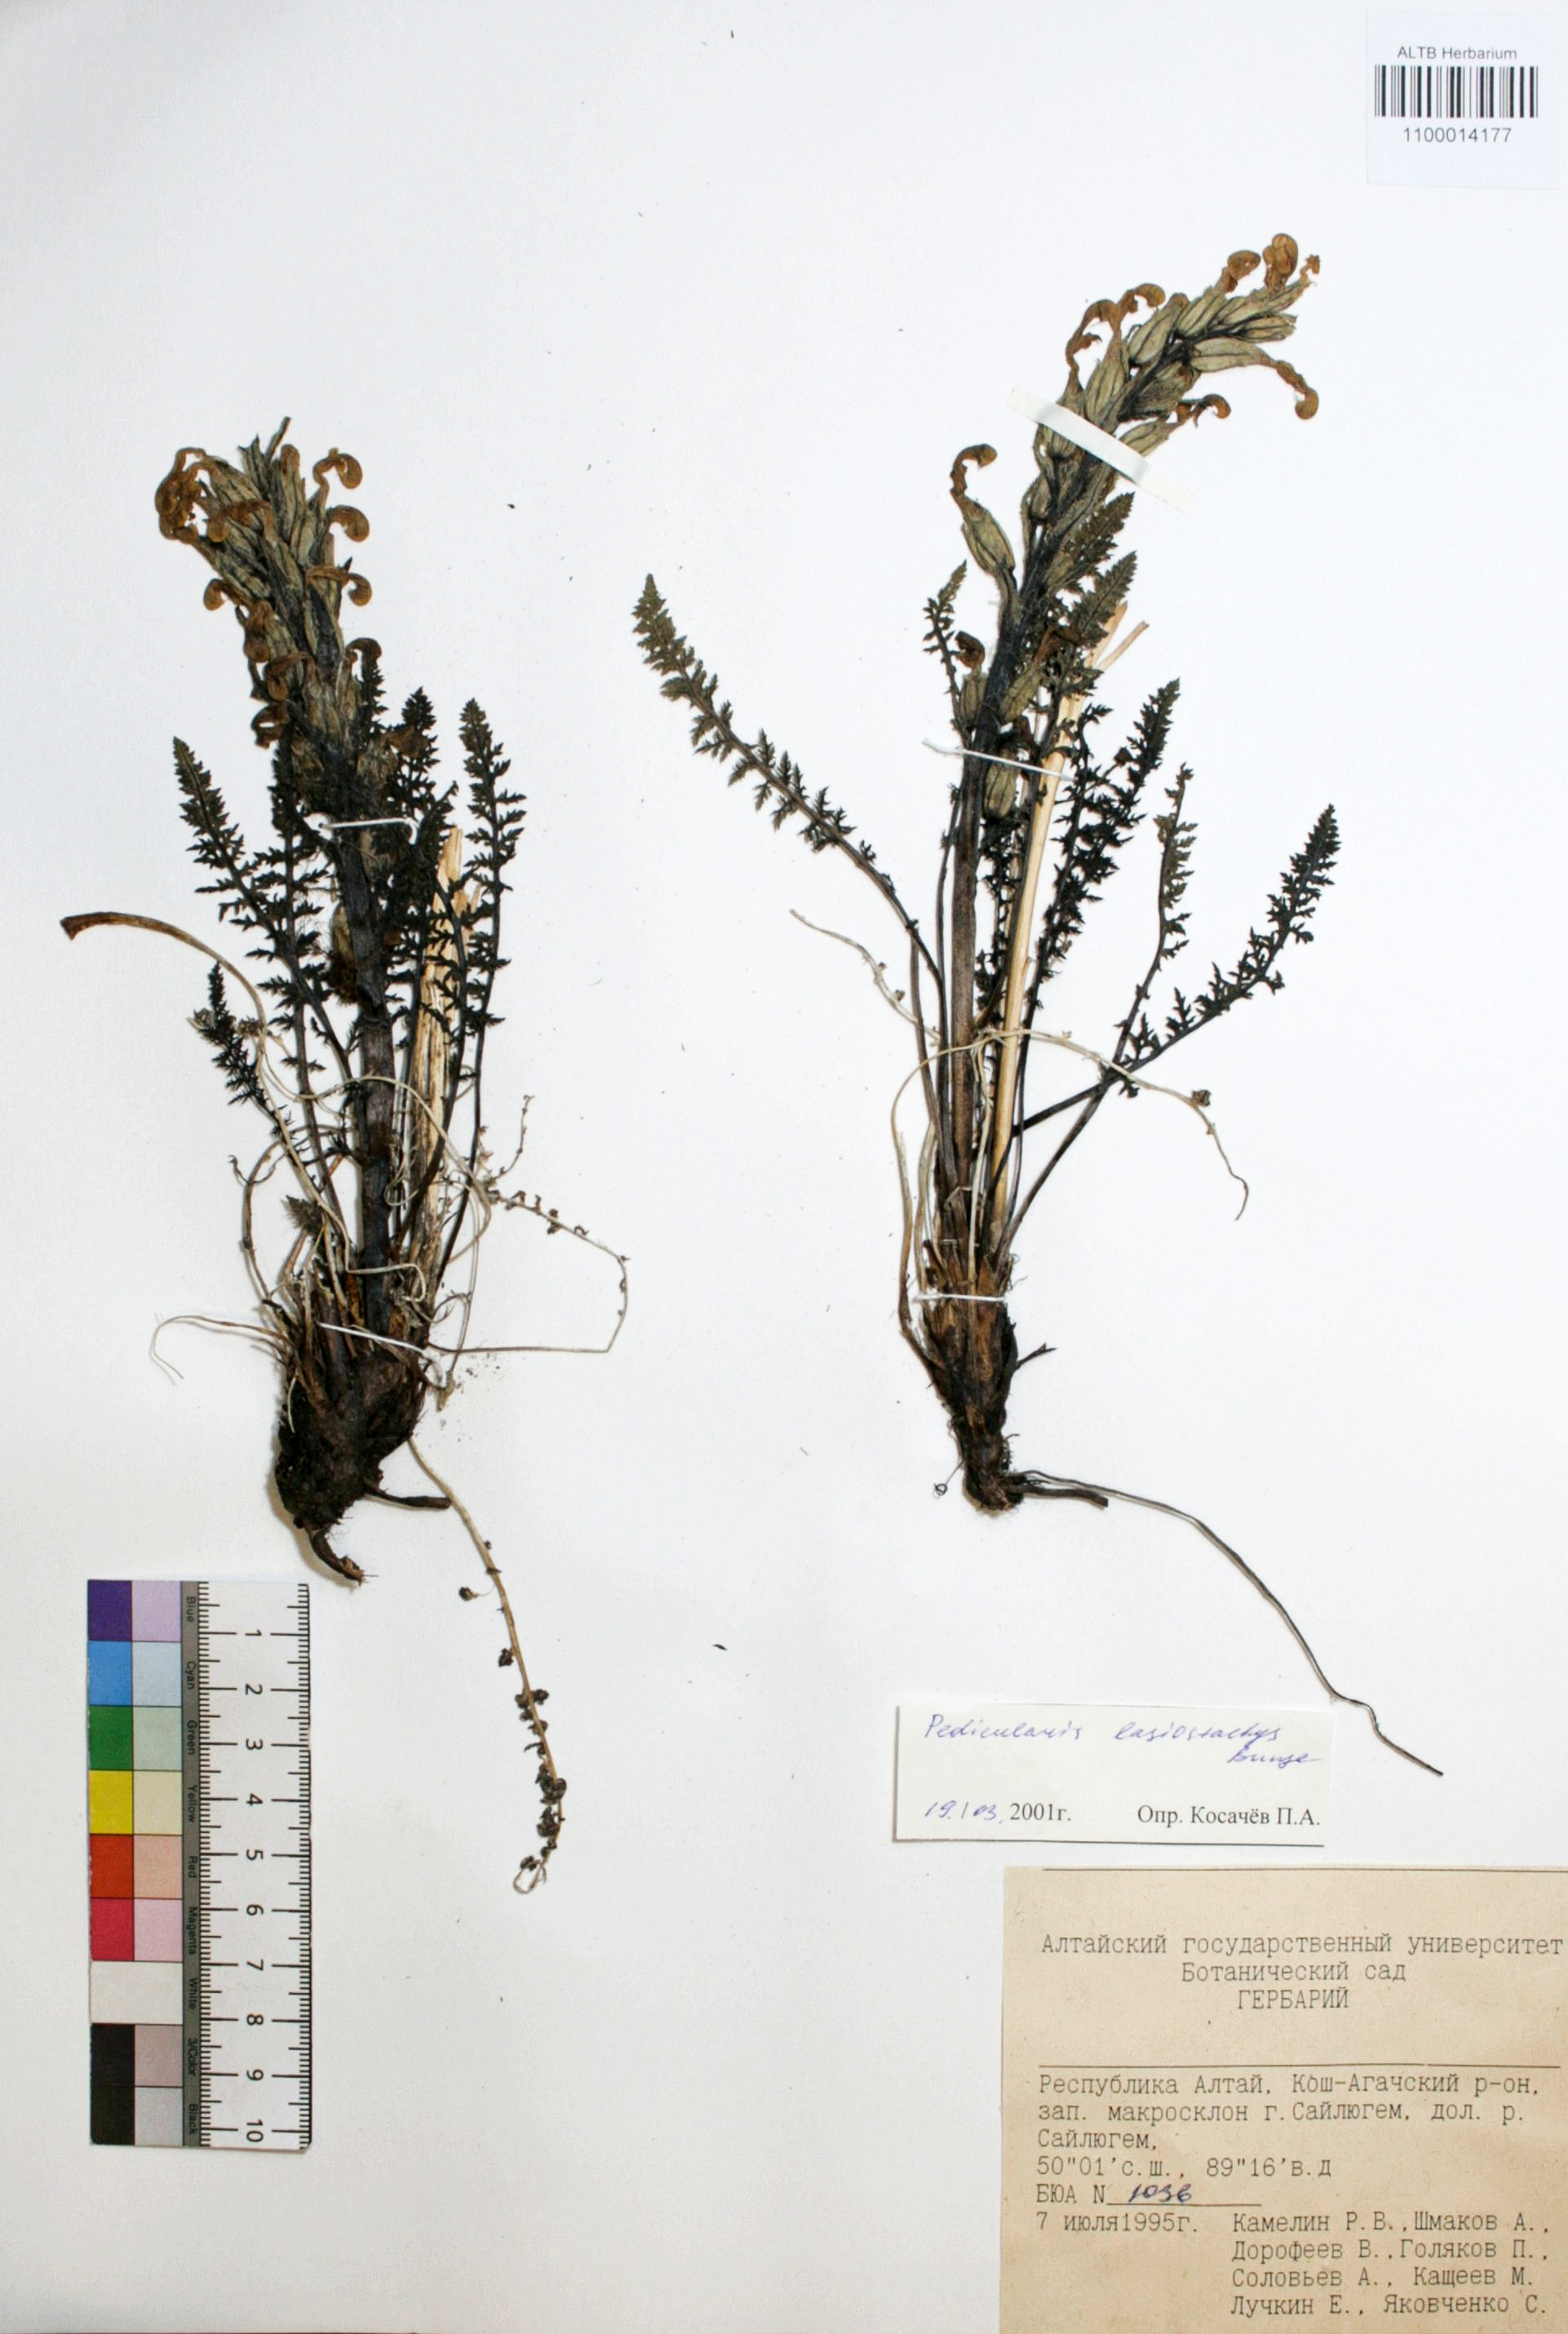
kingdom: Plantae
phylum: Tracheophyta
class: Magnoliopsida
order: Lamiales
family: Orobanchaceae
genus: Pedicularis
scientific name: Pedicularis lasiostachys
